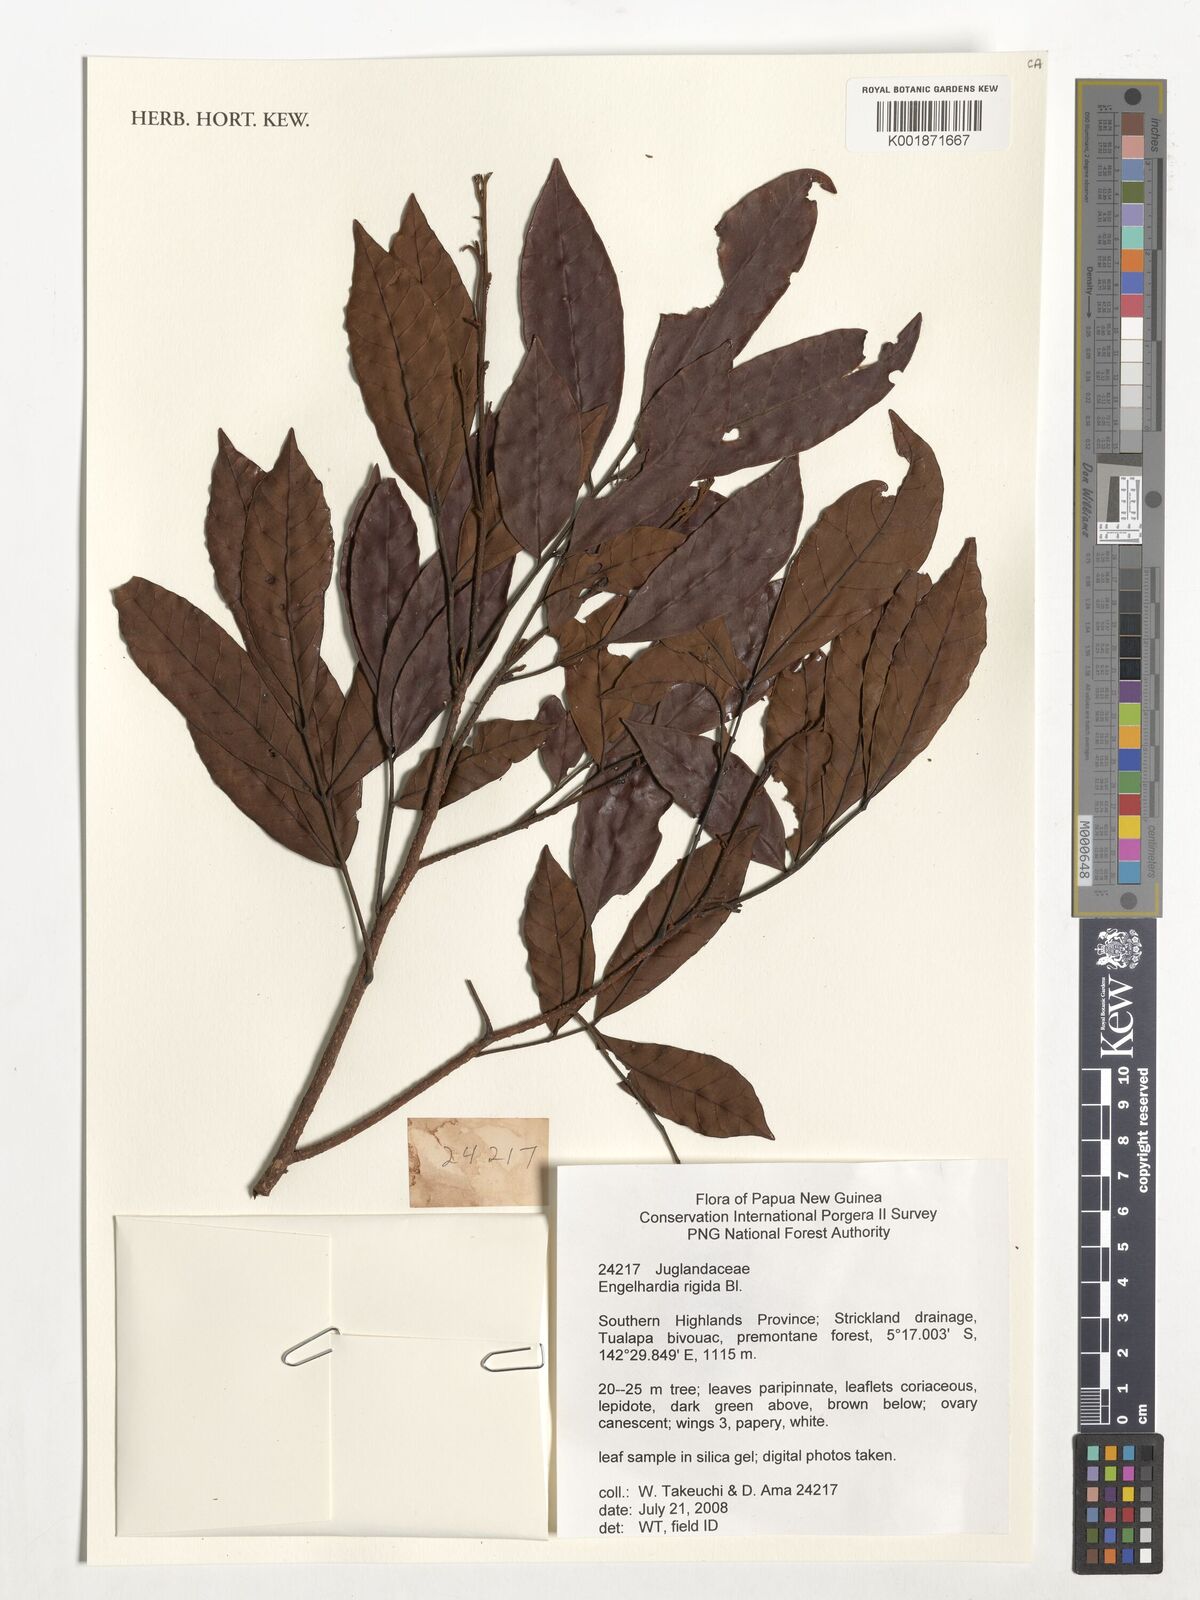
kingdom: Plantae
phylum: Tracheophyta
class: Magnoliopsida
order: Fagales
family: Juglandaceae
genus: Engelhardia
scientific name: Engelhardia rigida
